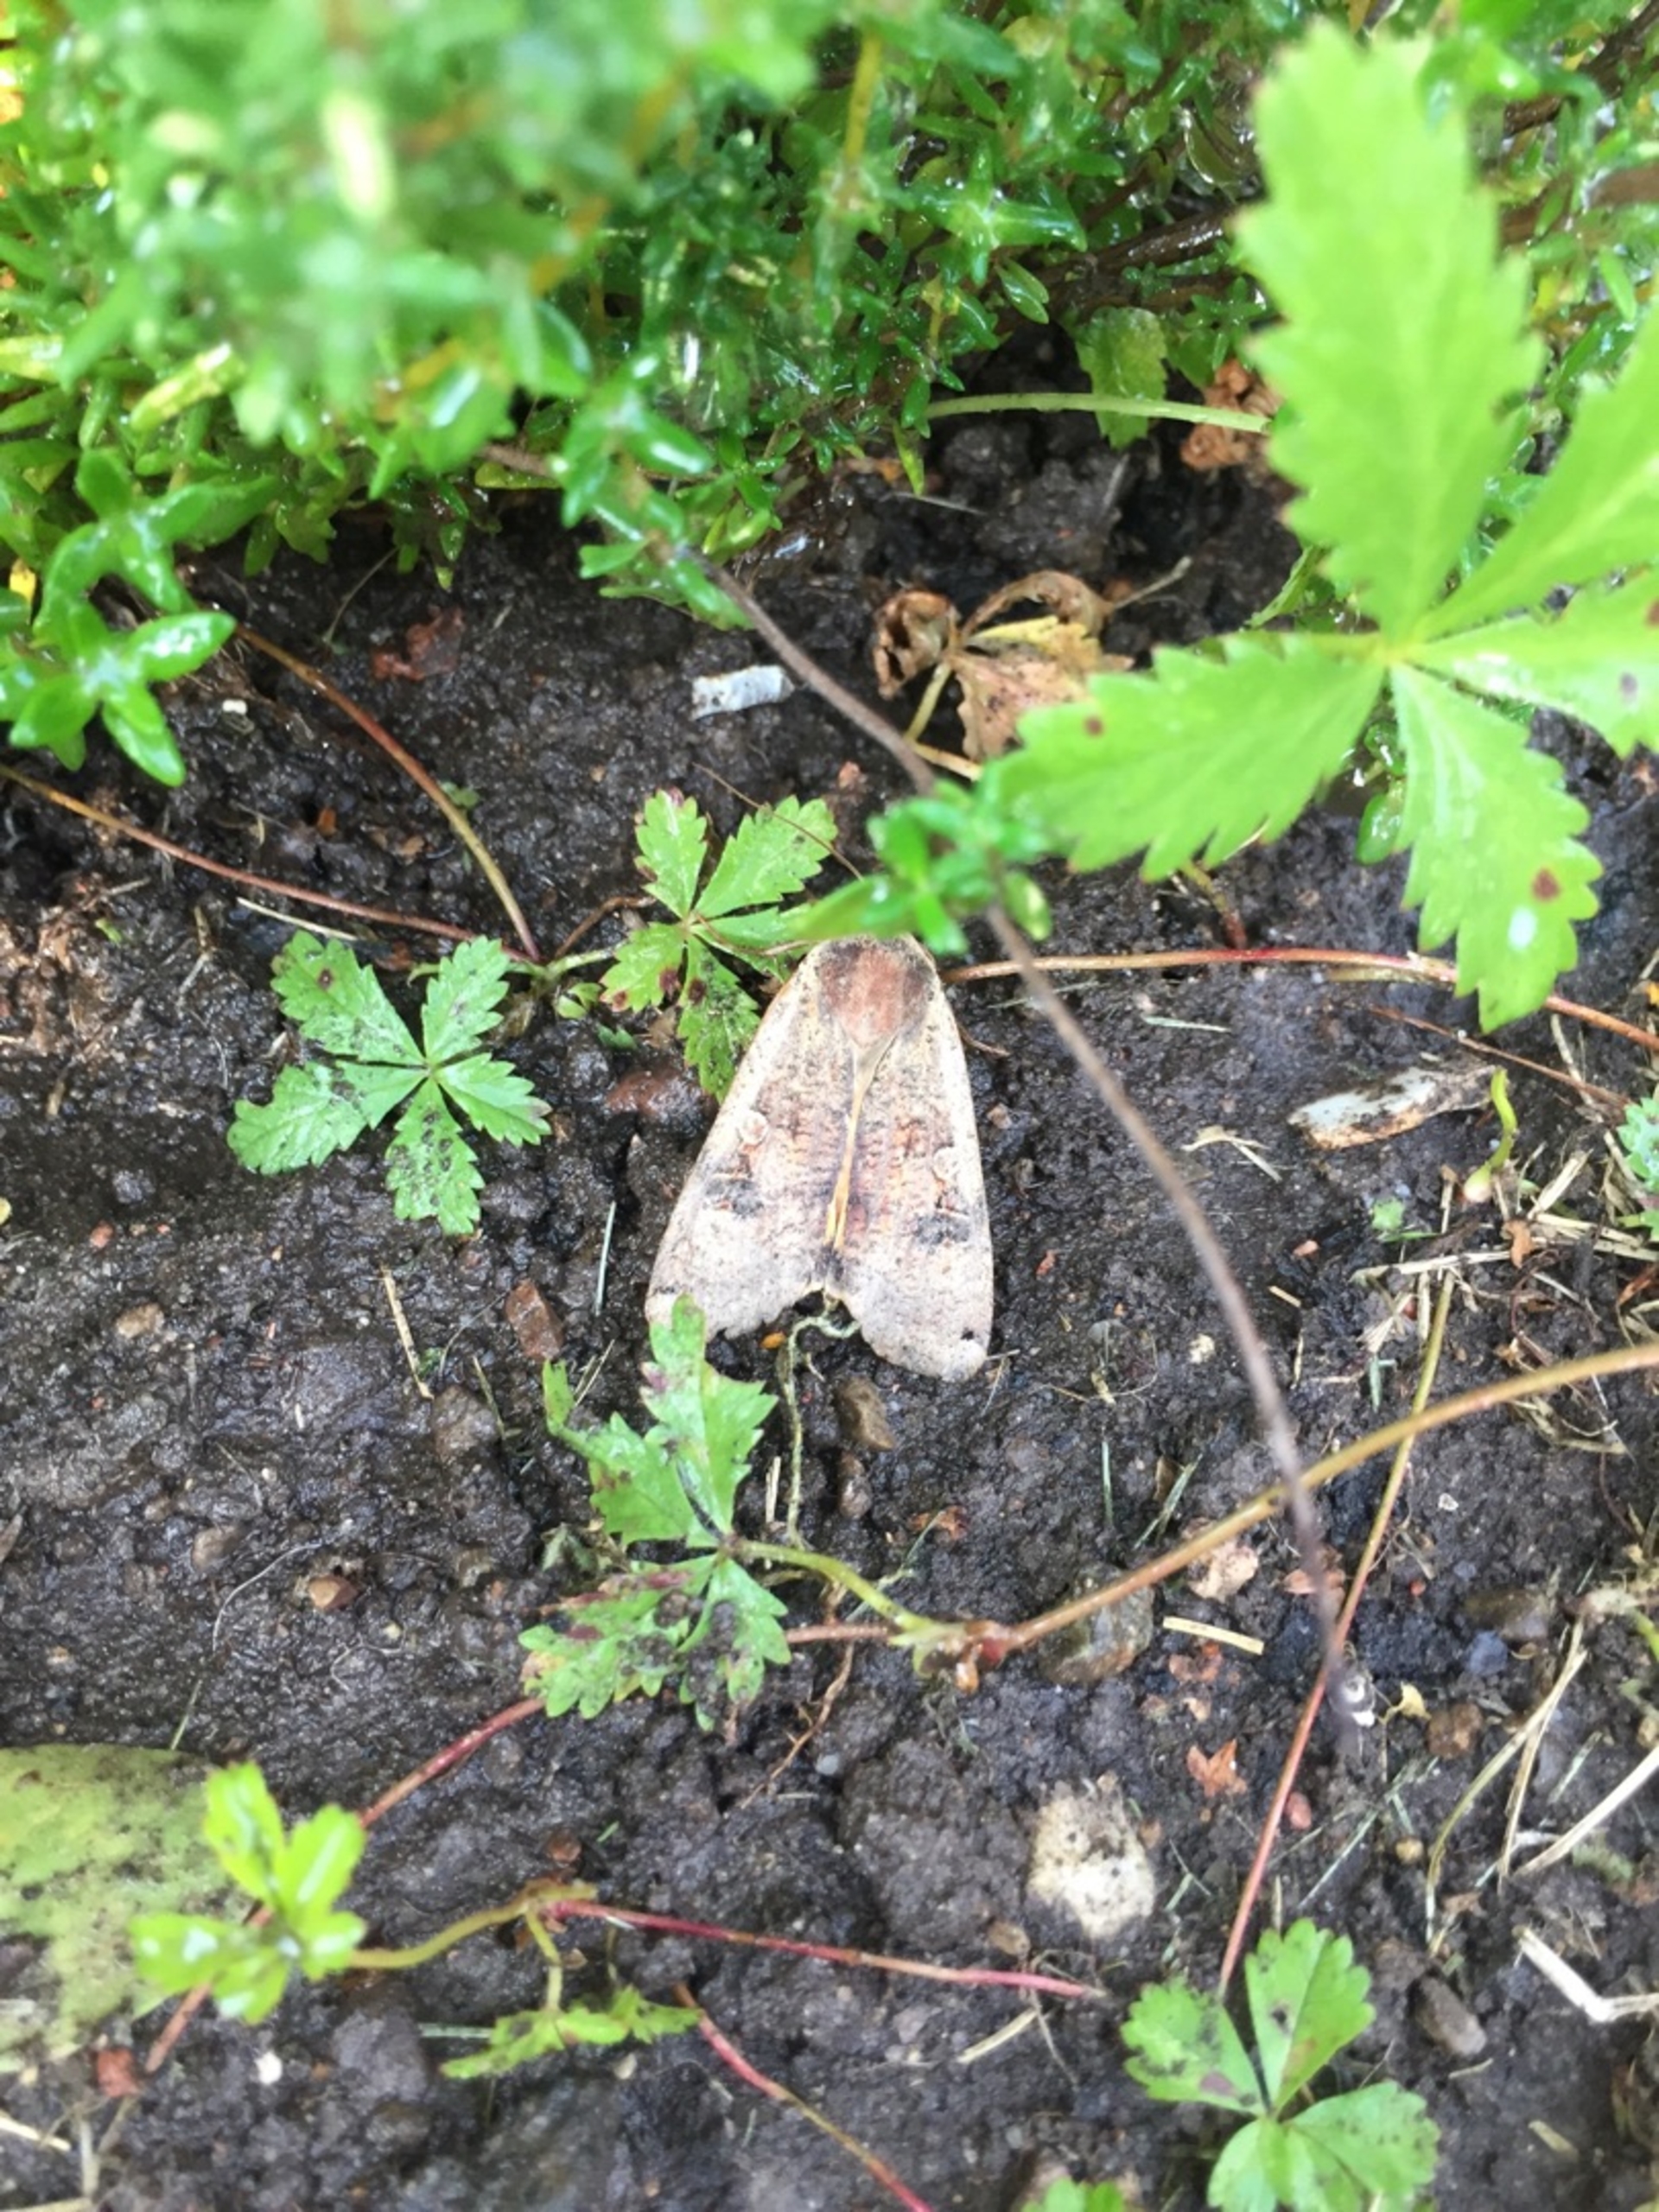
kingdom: Animalia
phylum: Arthropoda
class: Insecta
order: Lepidoptera
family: Noctuidae
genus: Noctua
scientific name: Noctua pronuba
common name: Stor smutugle
